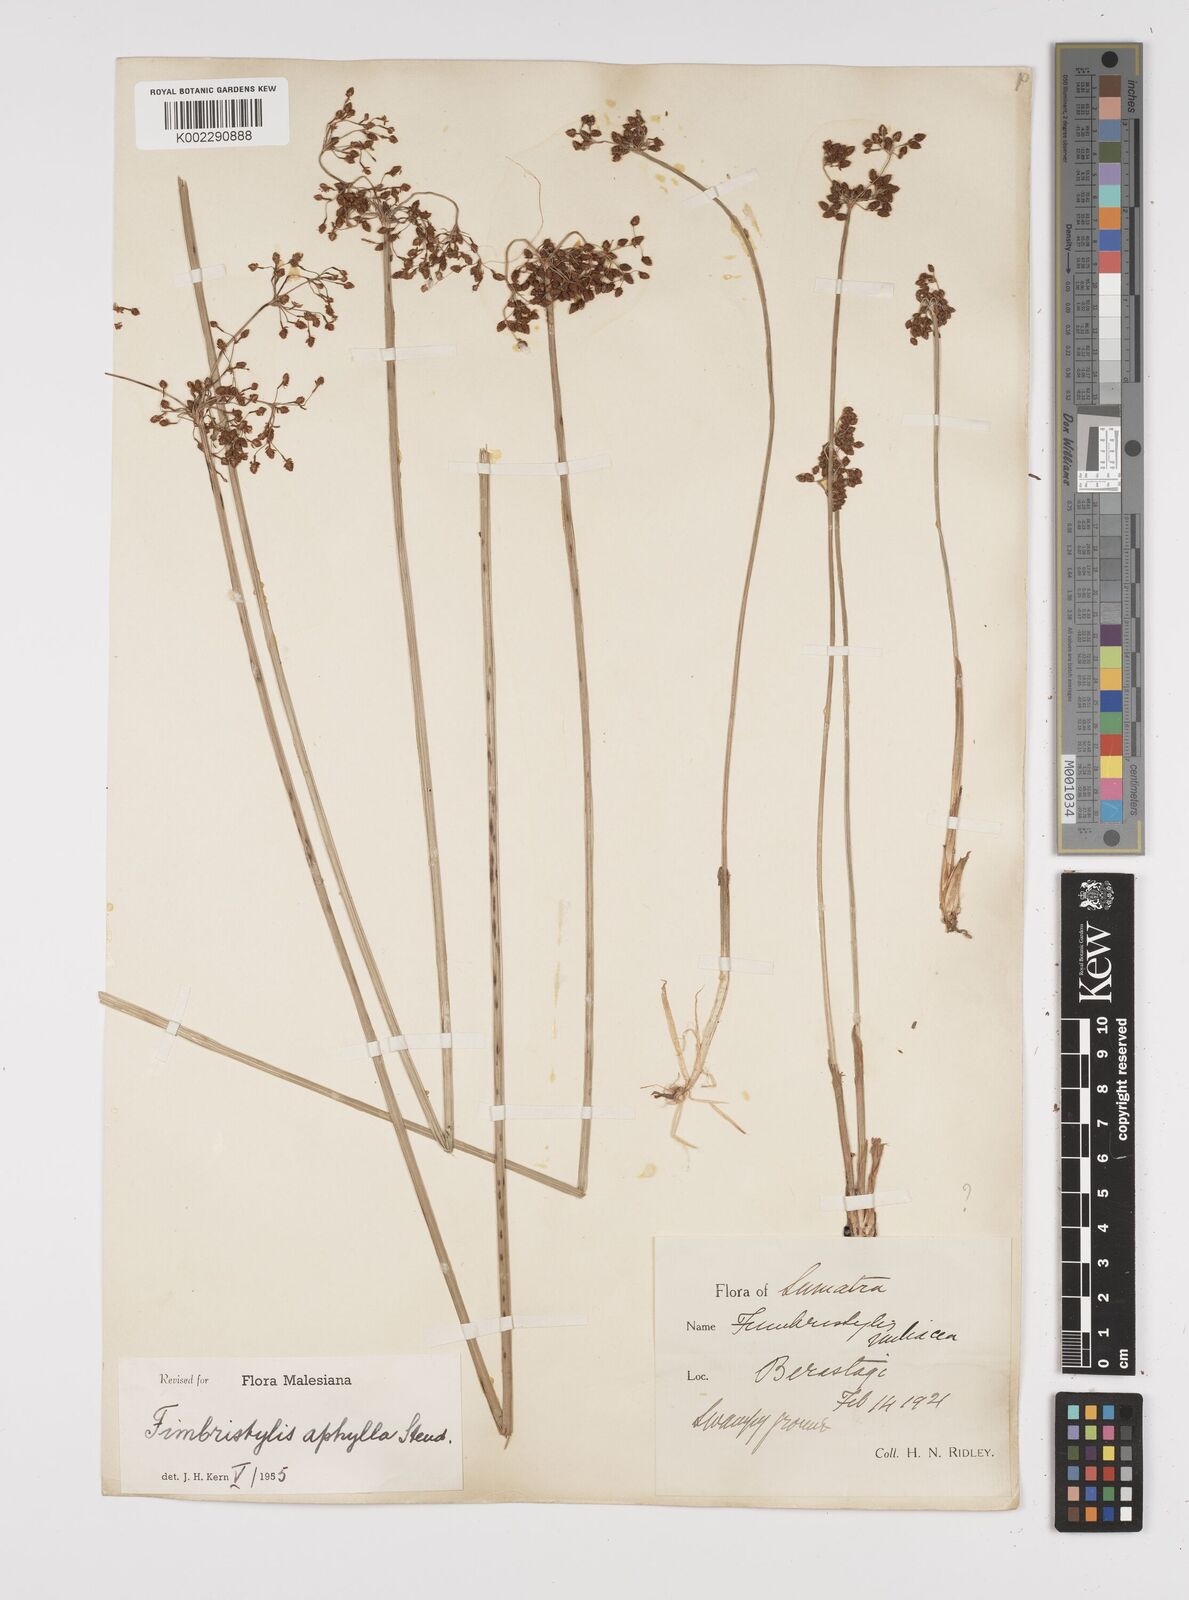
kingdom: Plantae
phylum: Tracheophyta
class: Liliopsida
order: Poales
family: Cyperaceae
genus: Fimbristylis
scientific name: Fimbristylis aphylla
